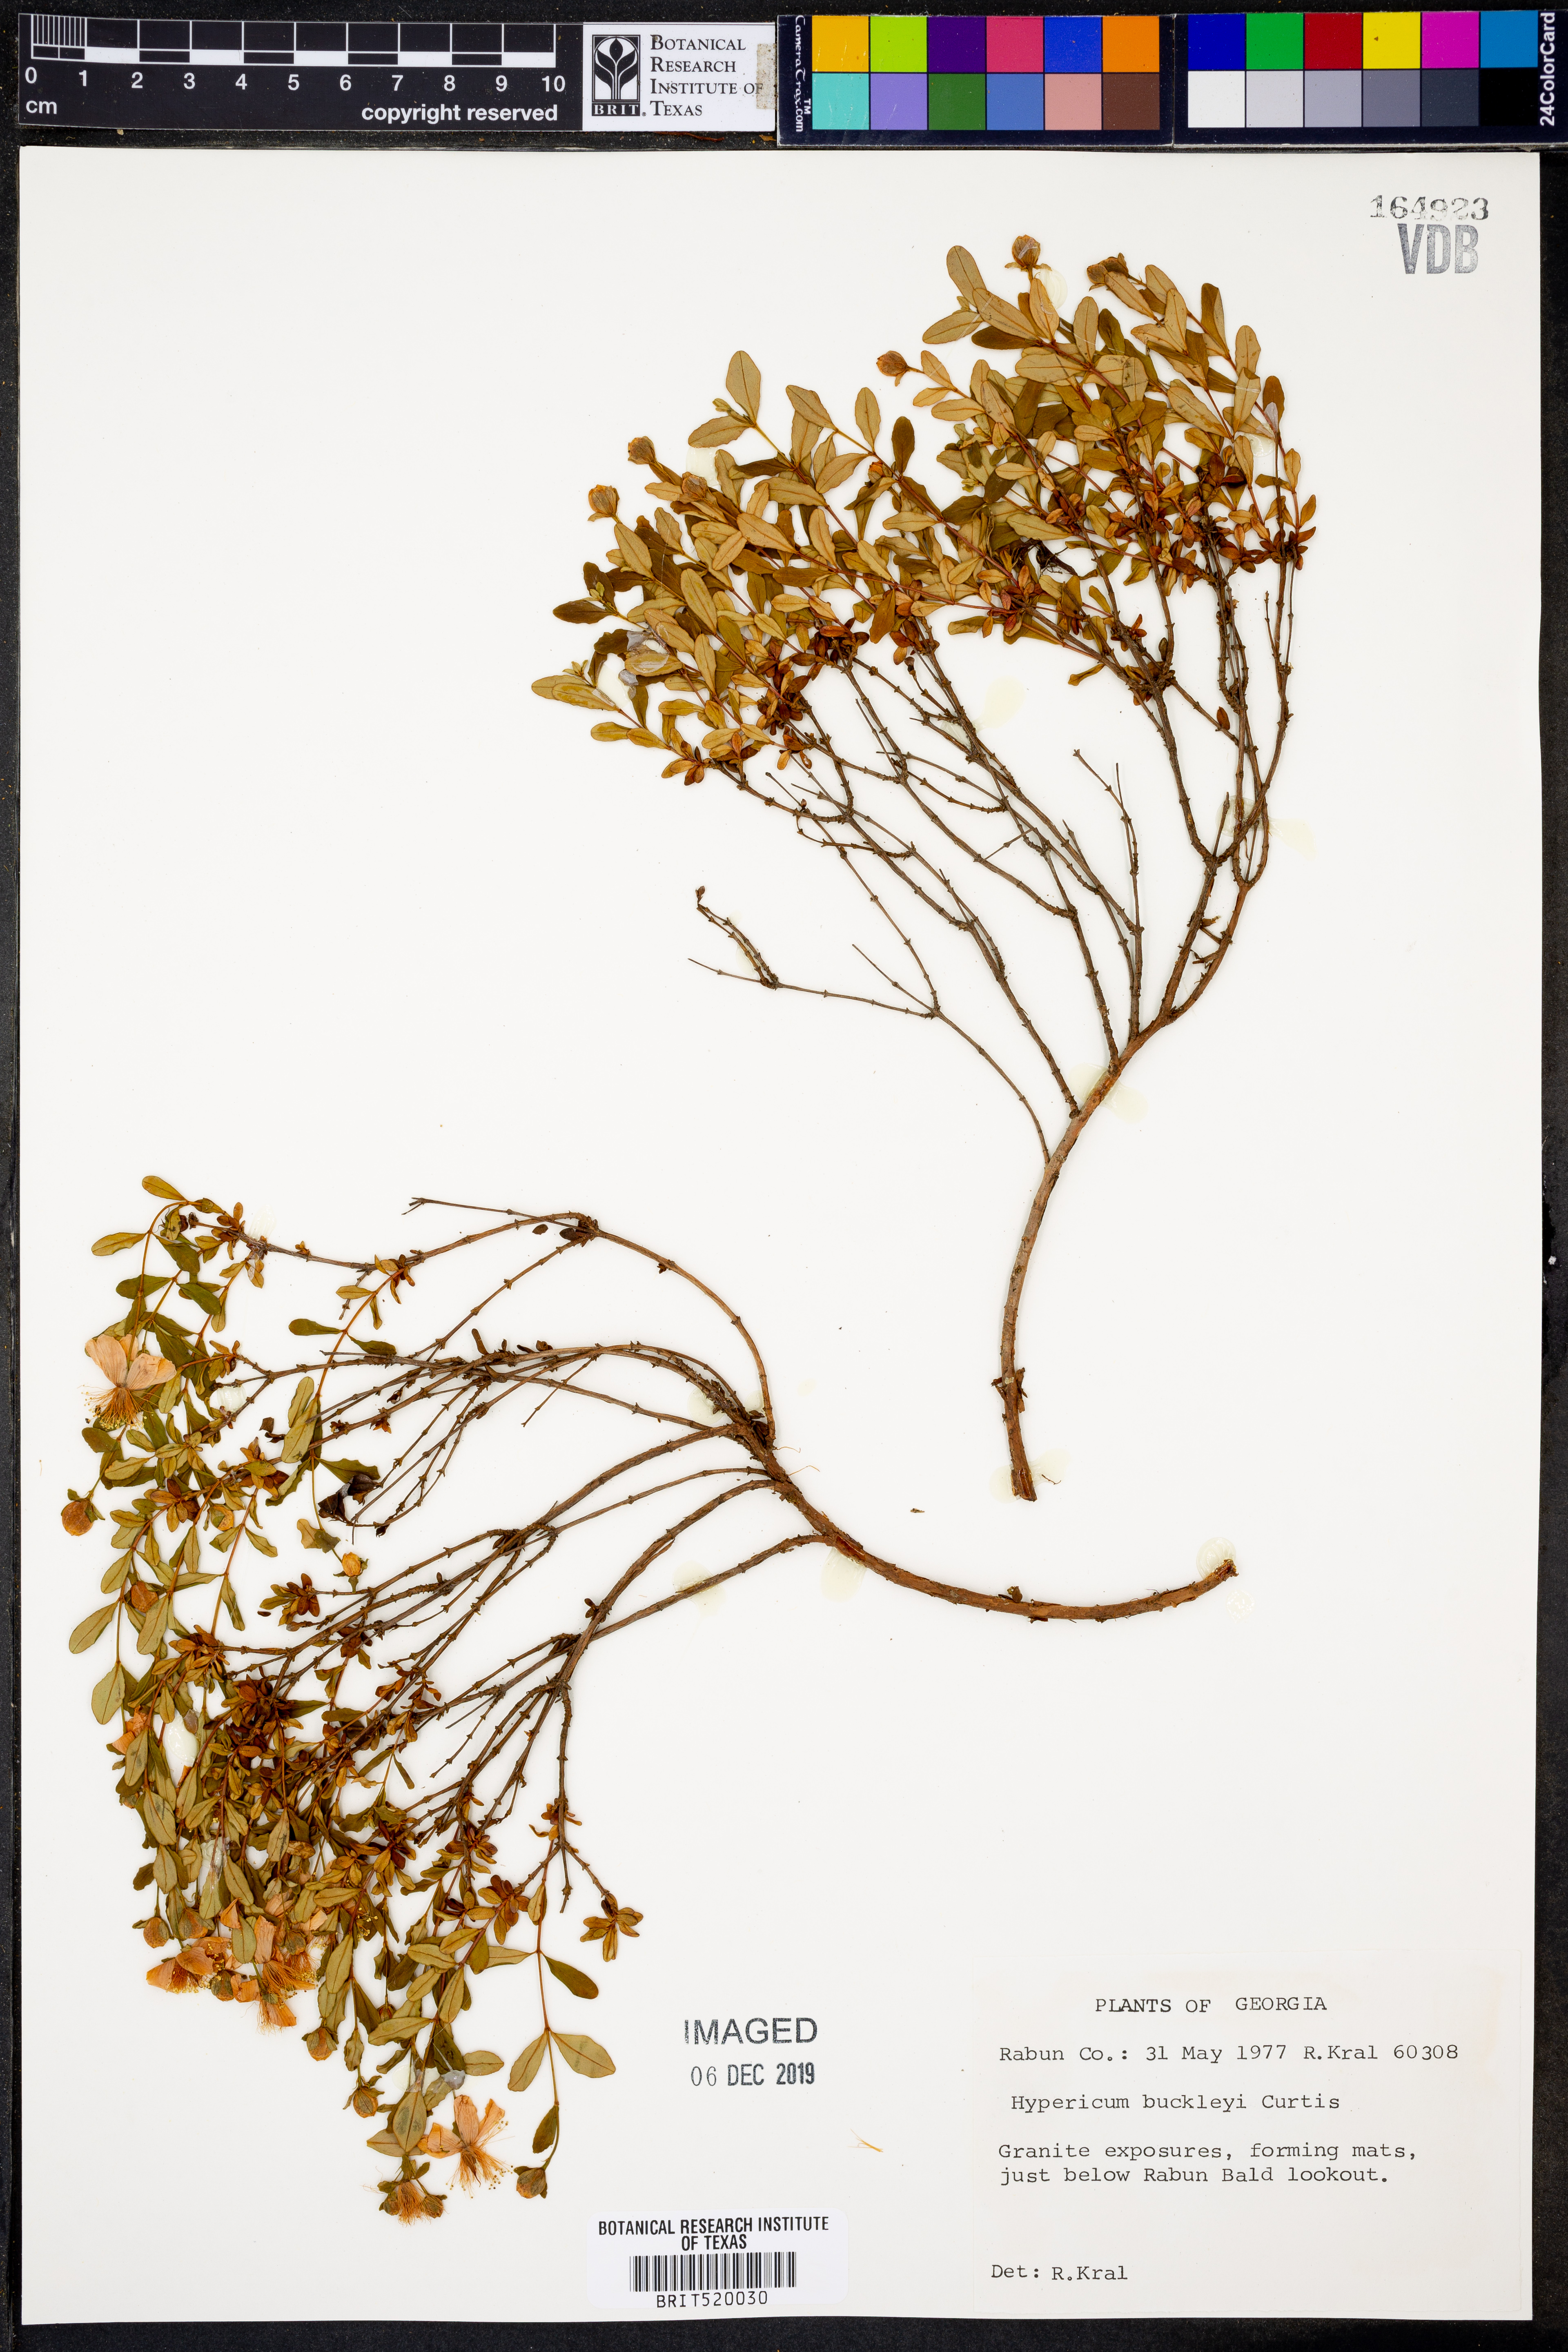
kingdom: Plantae
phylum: Tracheophyta
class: Magnoliopsida
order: Malpighiales
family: Hypericaceae
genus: Hypericum
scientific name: Hypericum buckleyi
